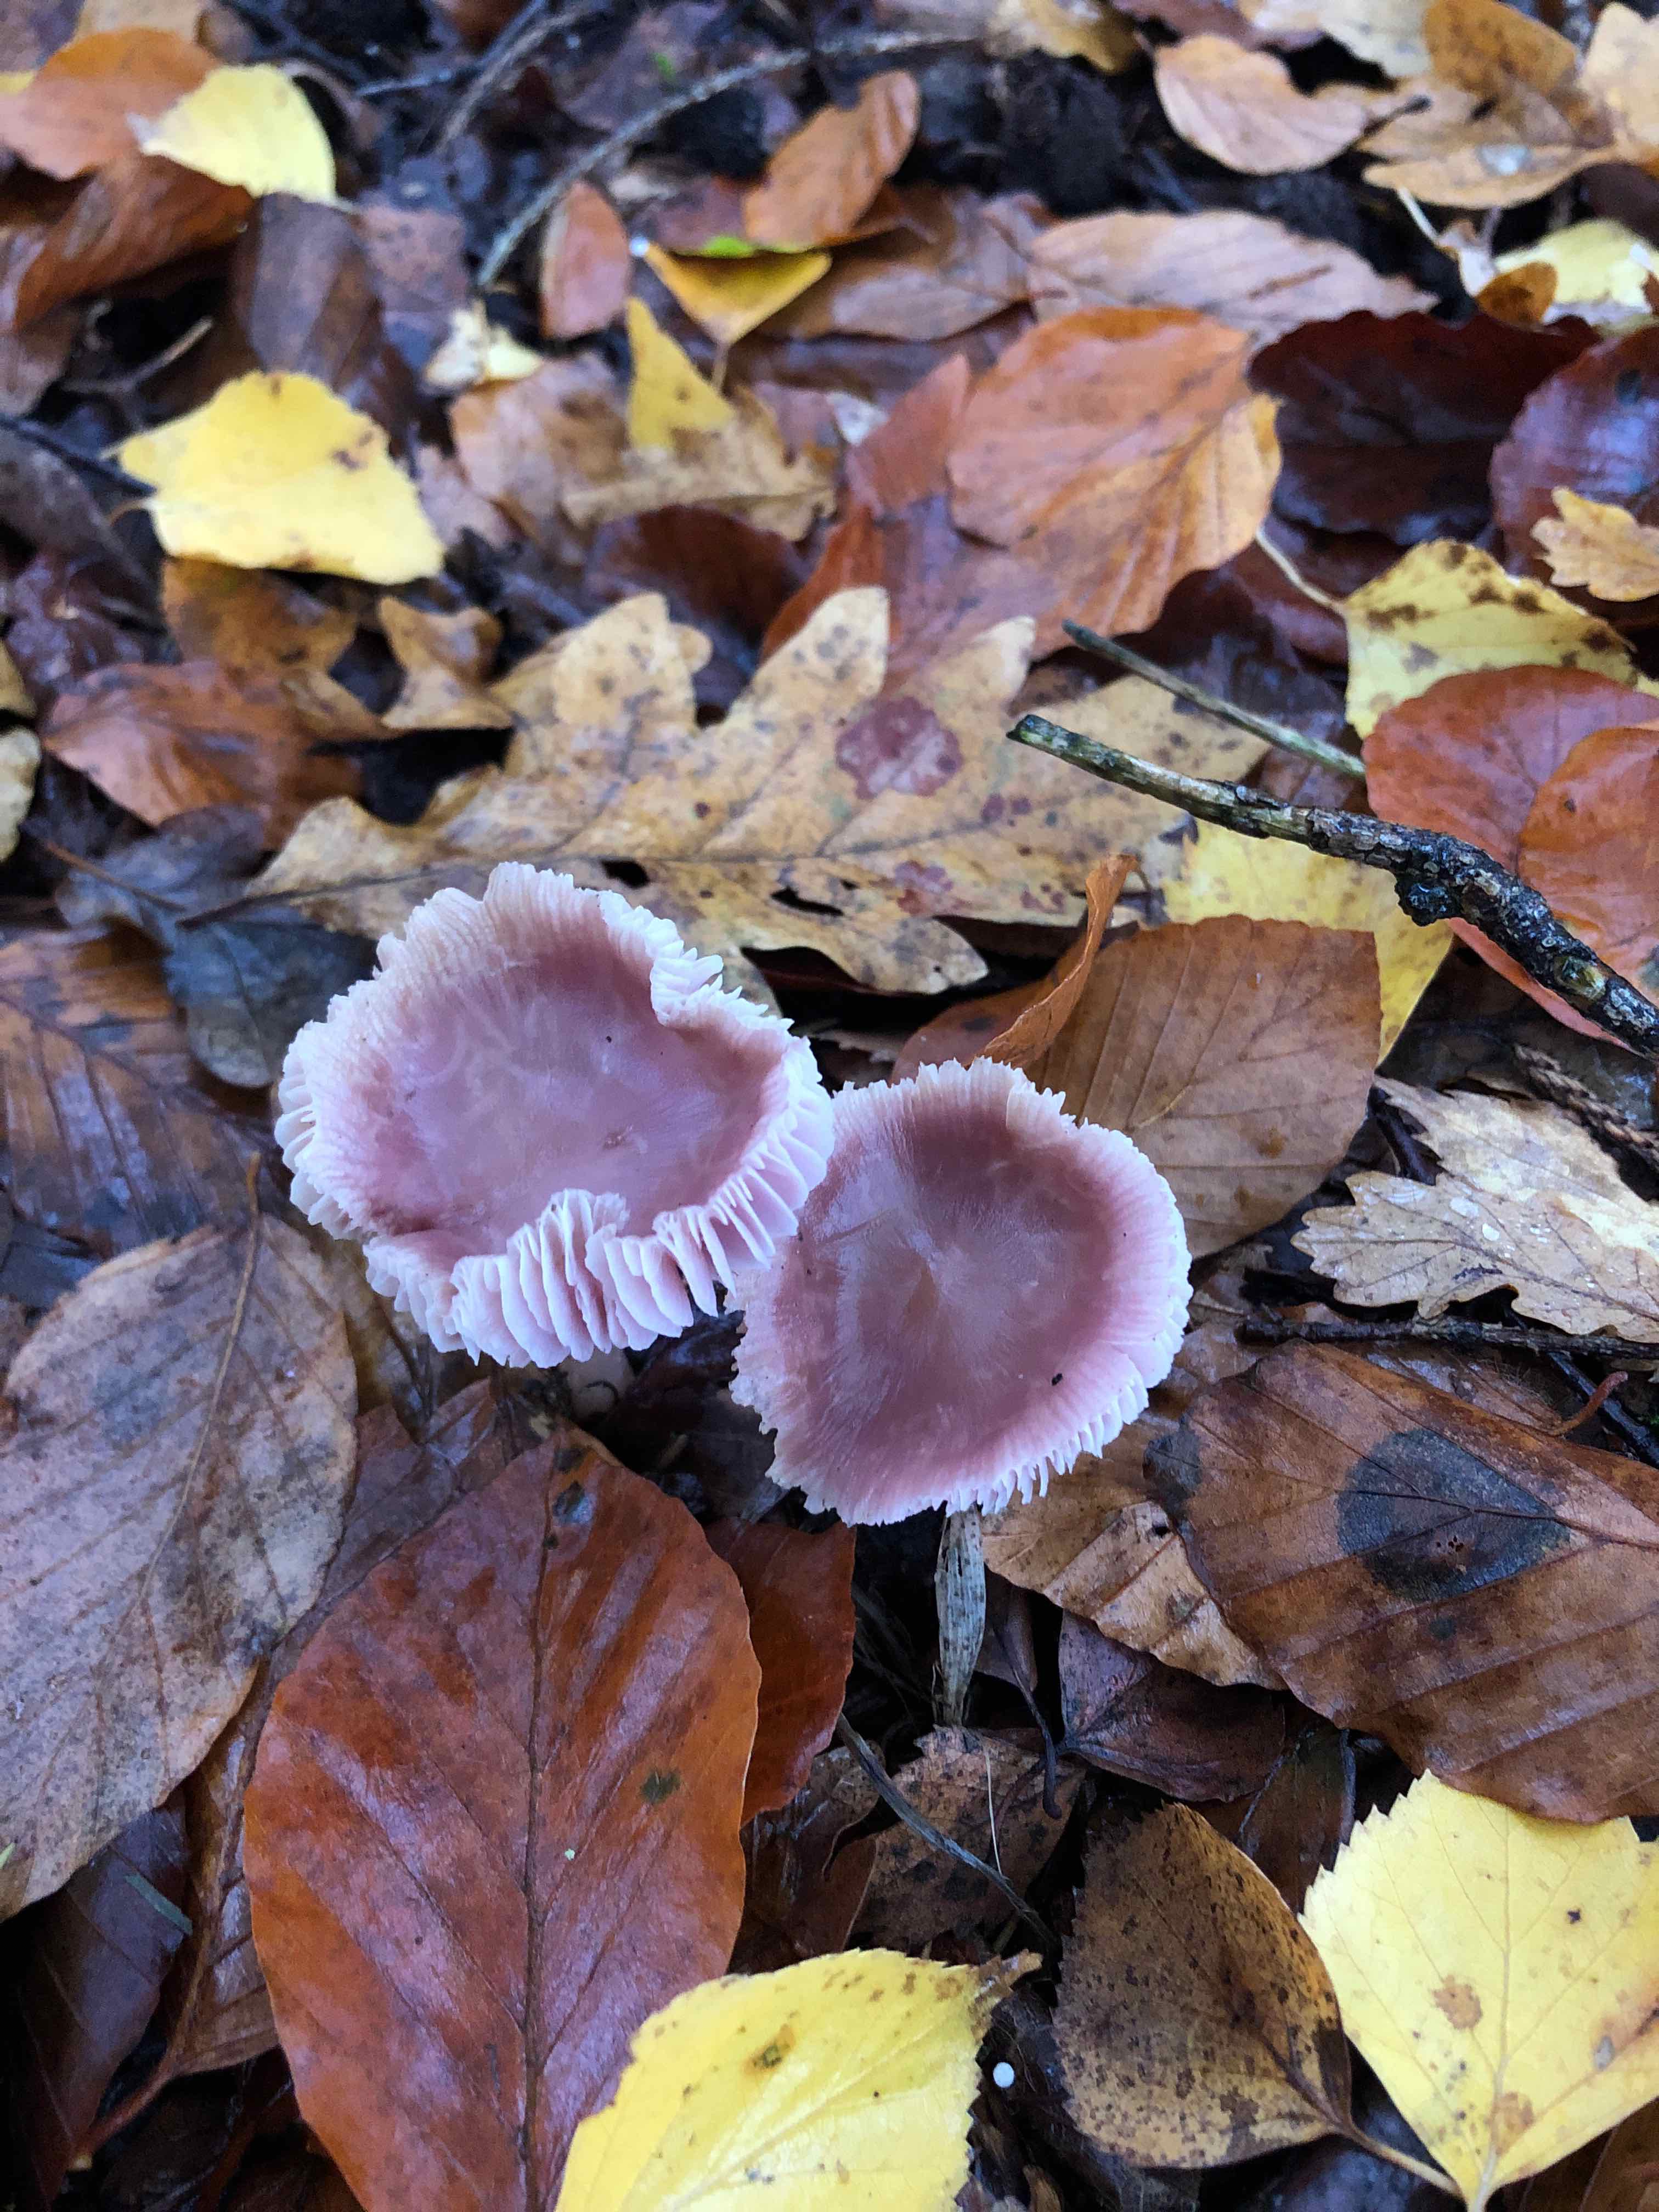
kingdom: Fungi
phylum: Basidiomycota
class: Agaricomycetes
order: Agaricales
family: Mycenaceae
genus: Mycena
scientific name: Mycena rosea
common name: rosa huesvamp
